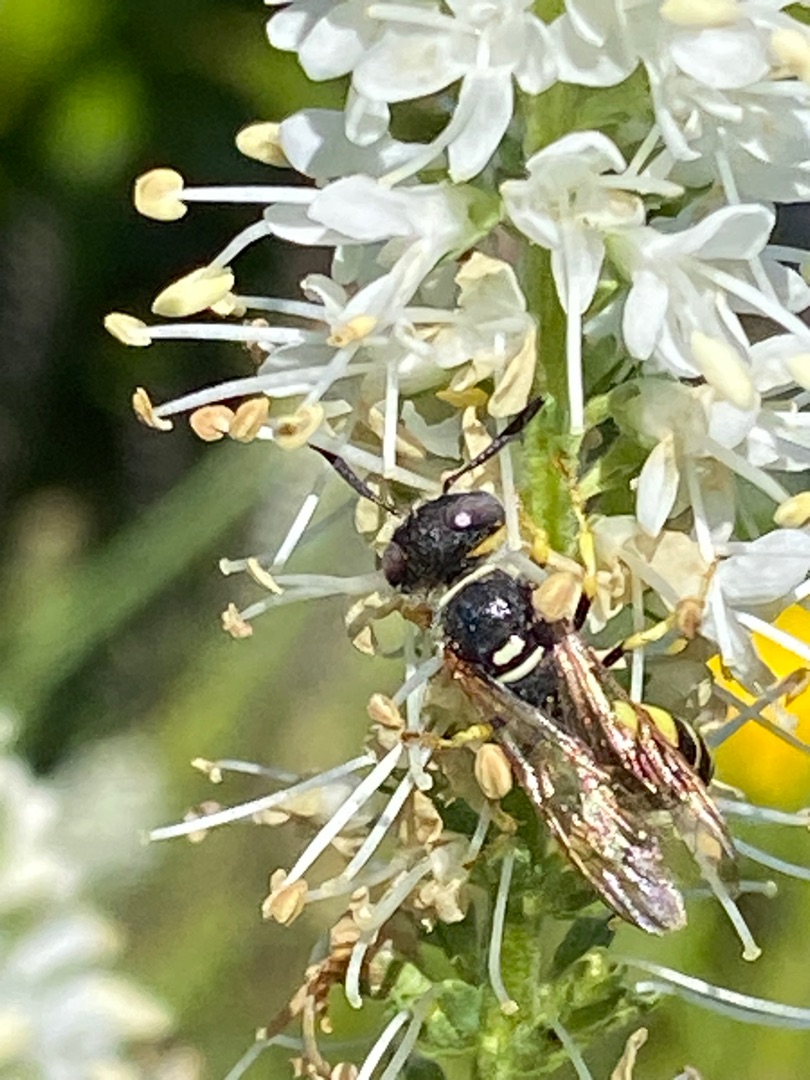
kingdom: Animalia
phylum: Arthropoda
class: Insecta
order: Hymenoptera
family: Crabronidae
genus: Philanthus
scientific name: Philanthus triangulum
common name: Biulv
